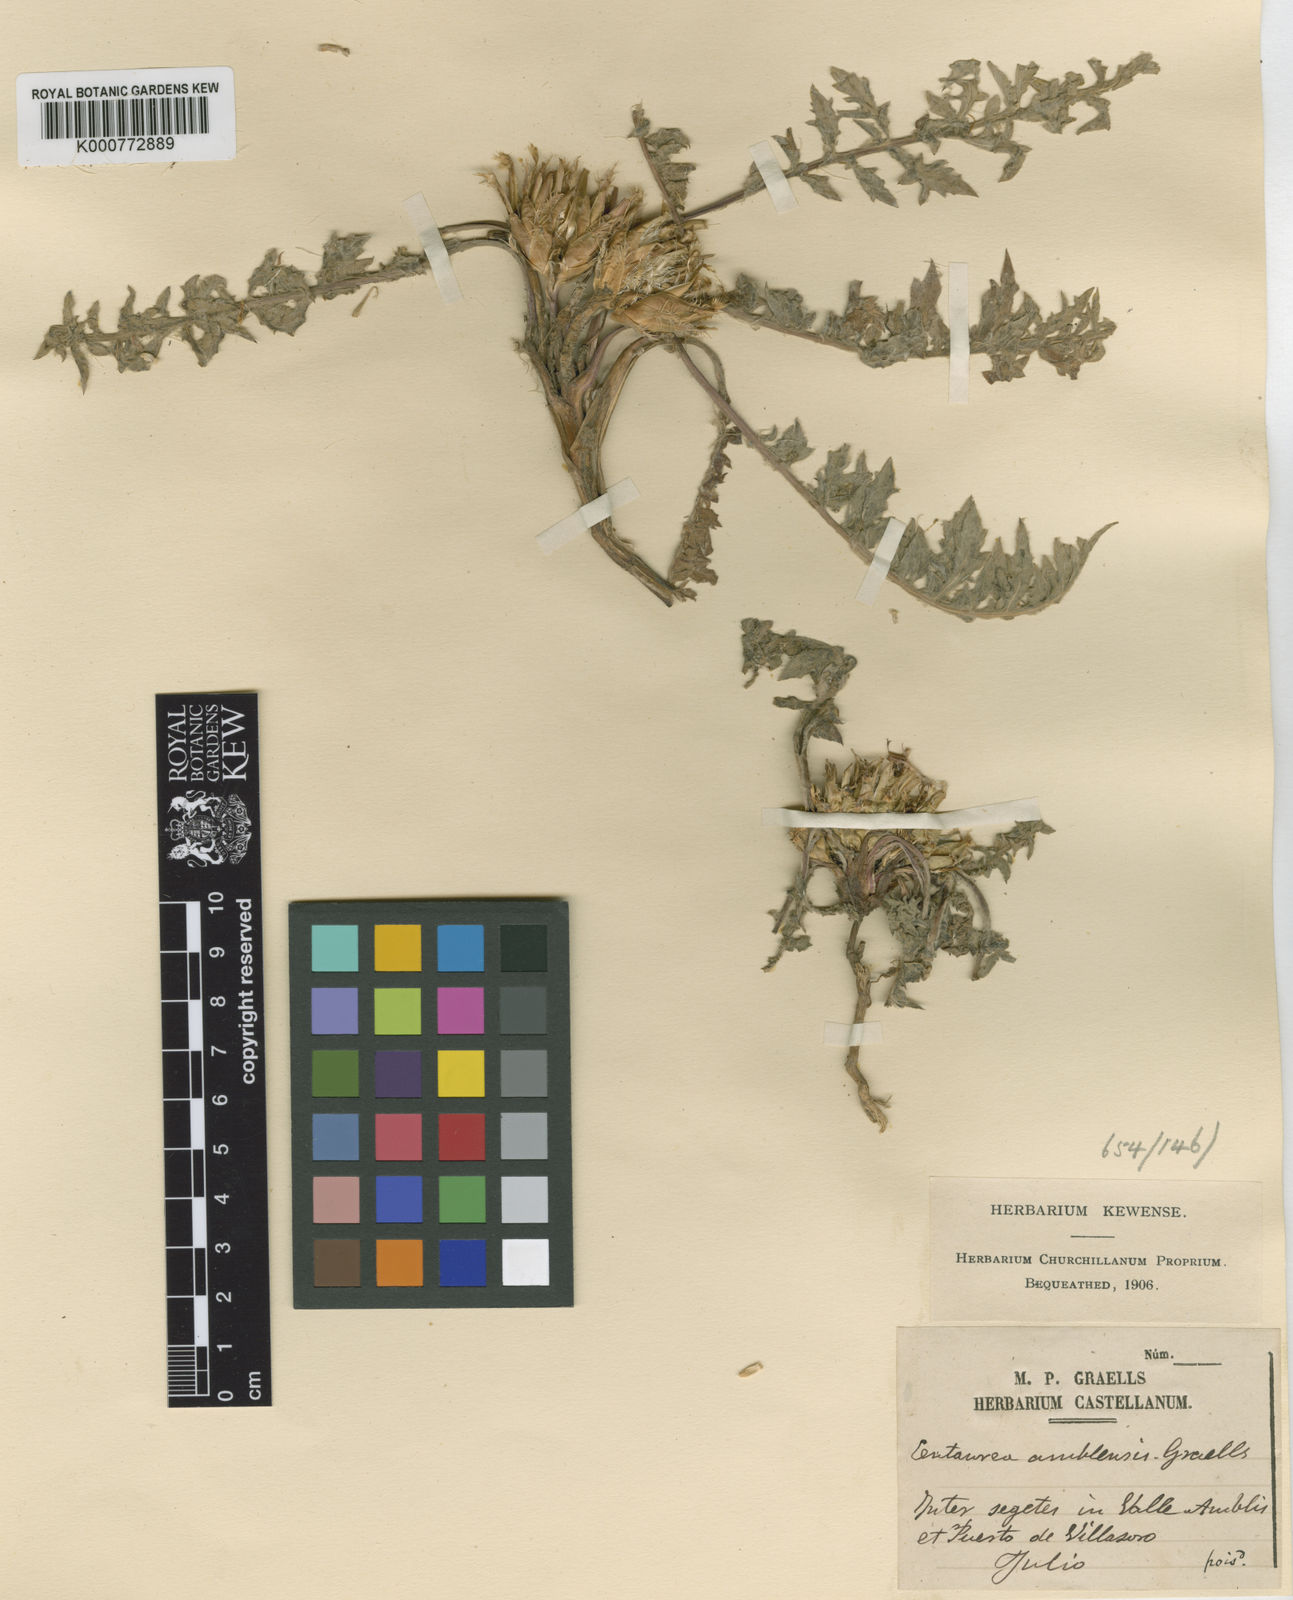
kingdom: Plantae
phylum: Tracheophyta
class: Magnoliopsida
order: Asterales
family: Asteraceae
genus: Centaurea
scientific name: Centaurea amblensis
